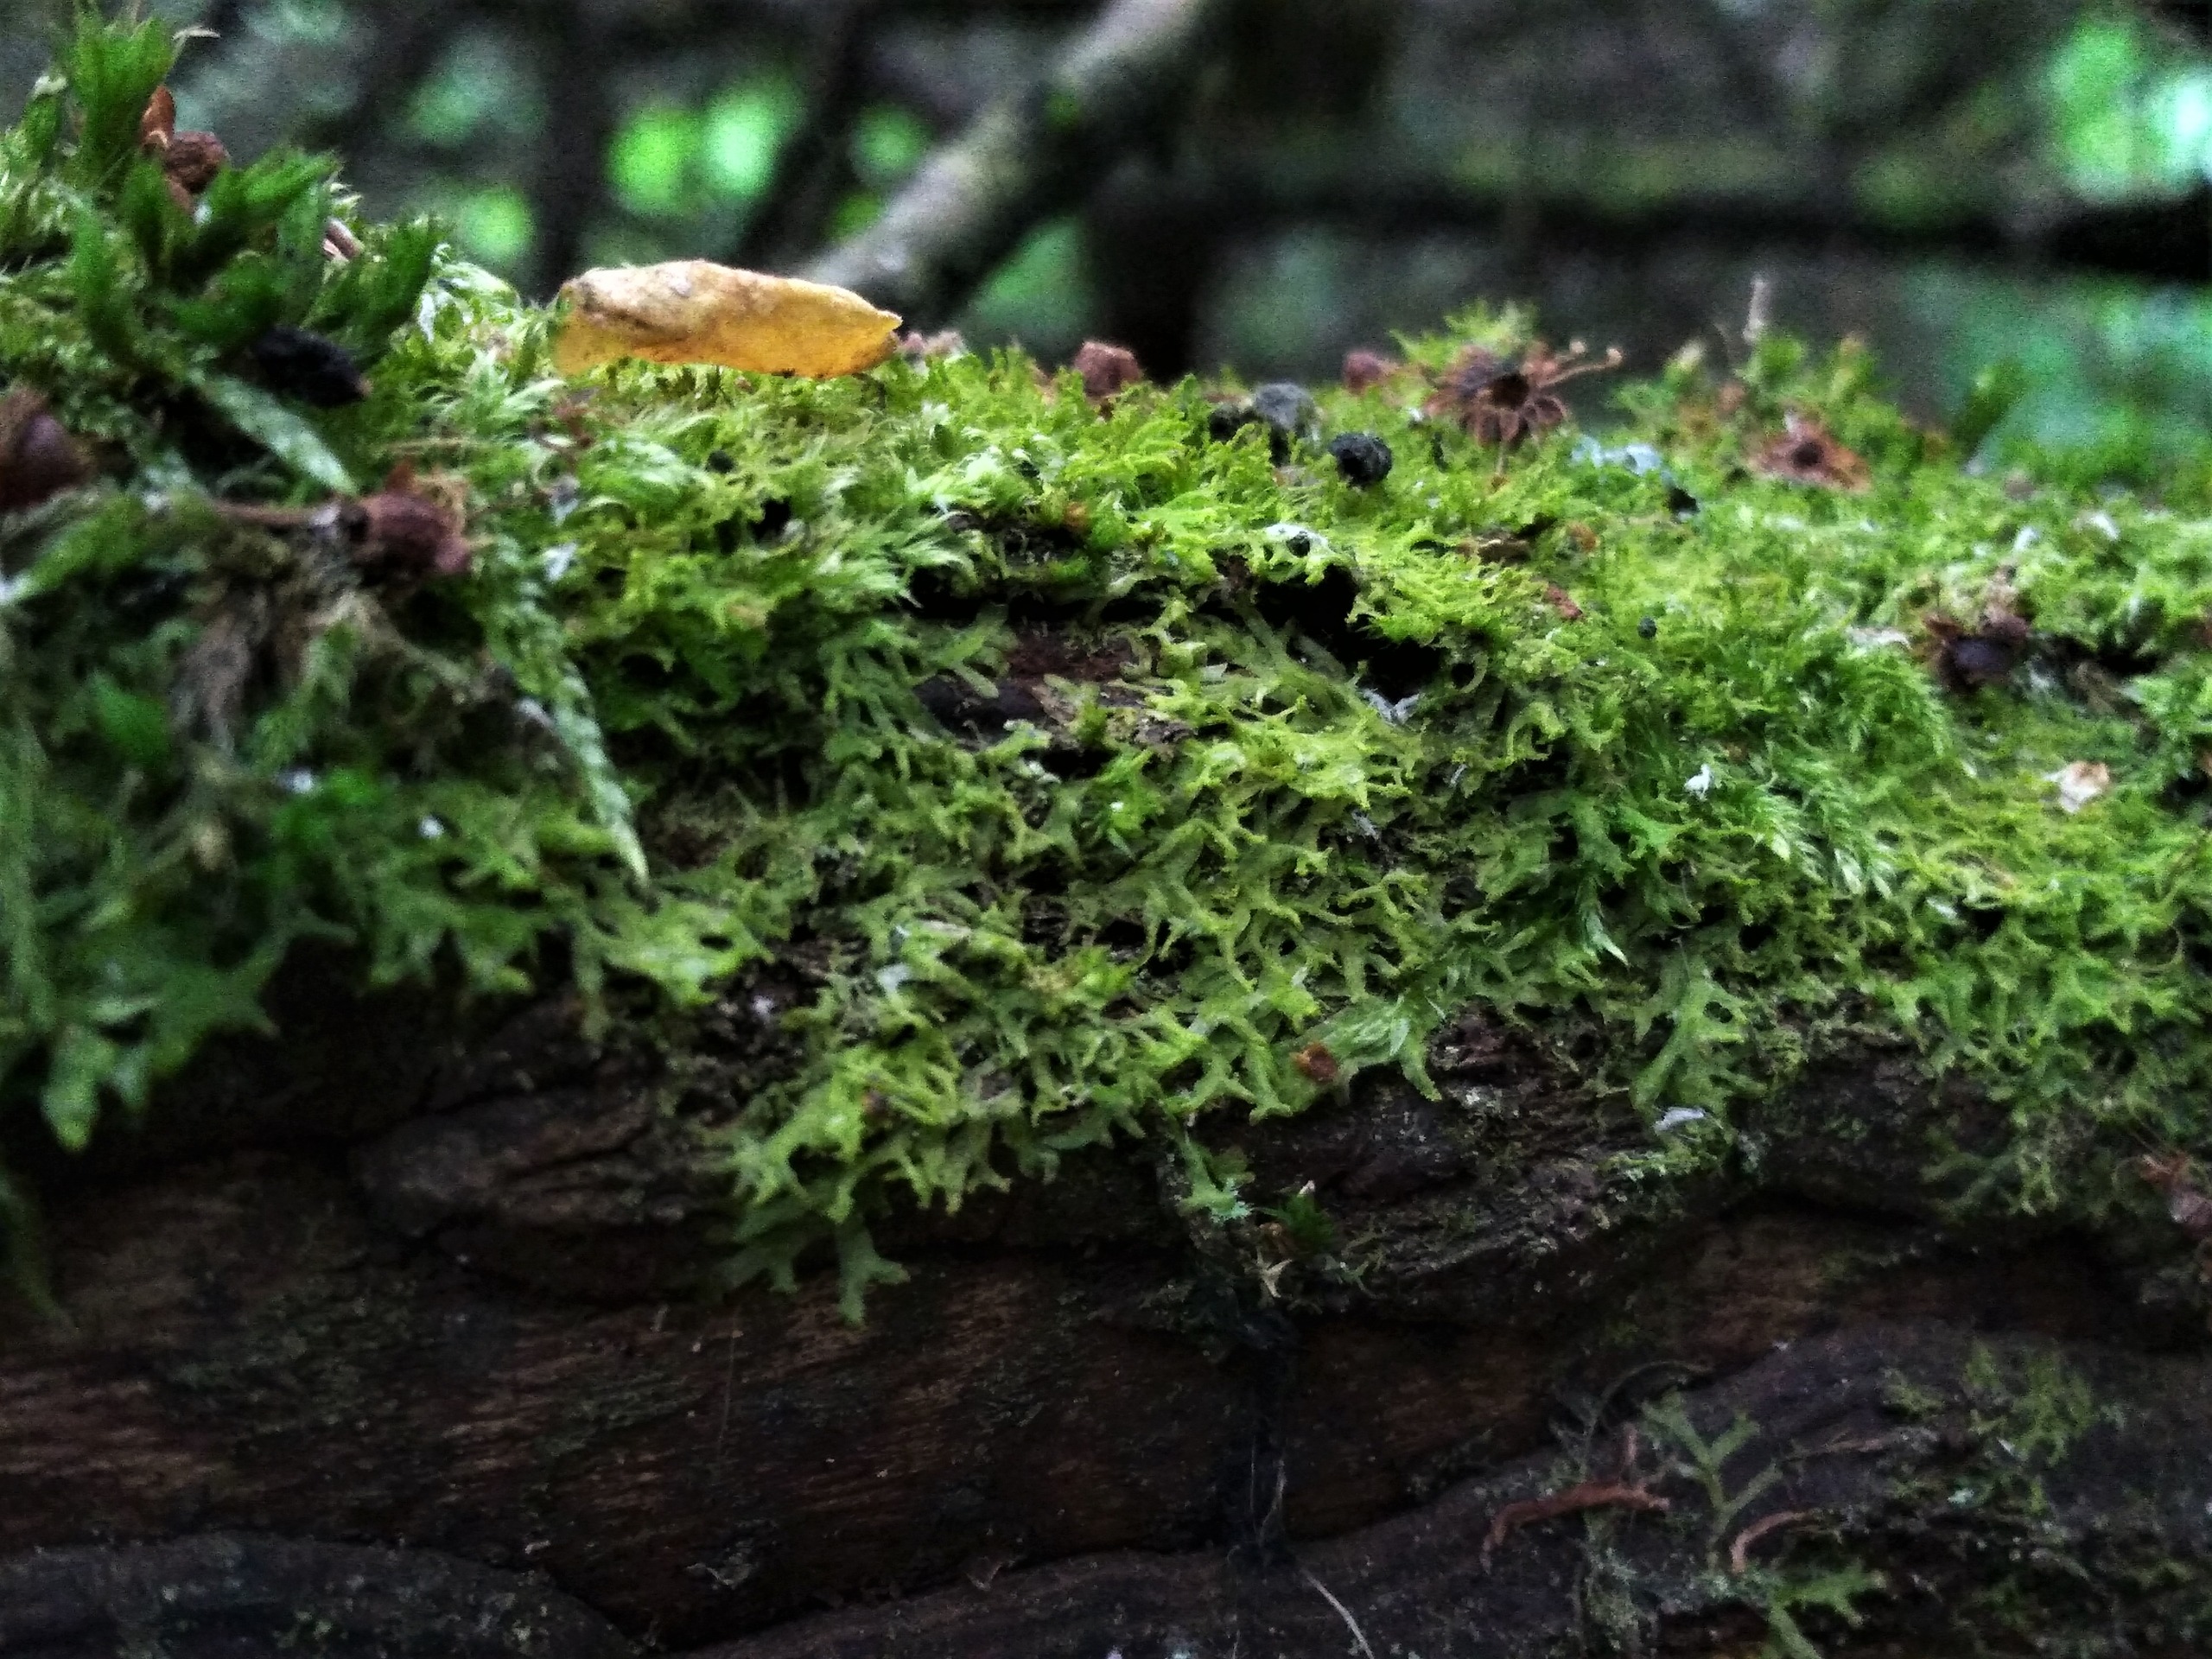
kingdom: Plantae
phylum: Marchantiophyta
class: Jungermanniopsida
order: Metzgeriales
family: Aneuraceae
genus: Riccardia
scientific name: Riccardia palmata
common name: Blågrøn gaffelløv
